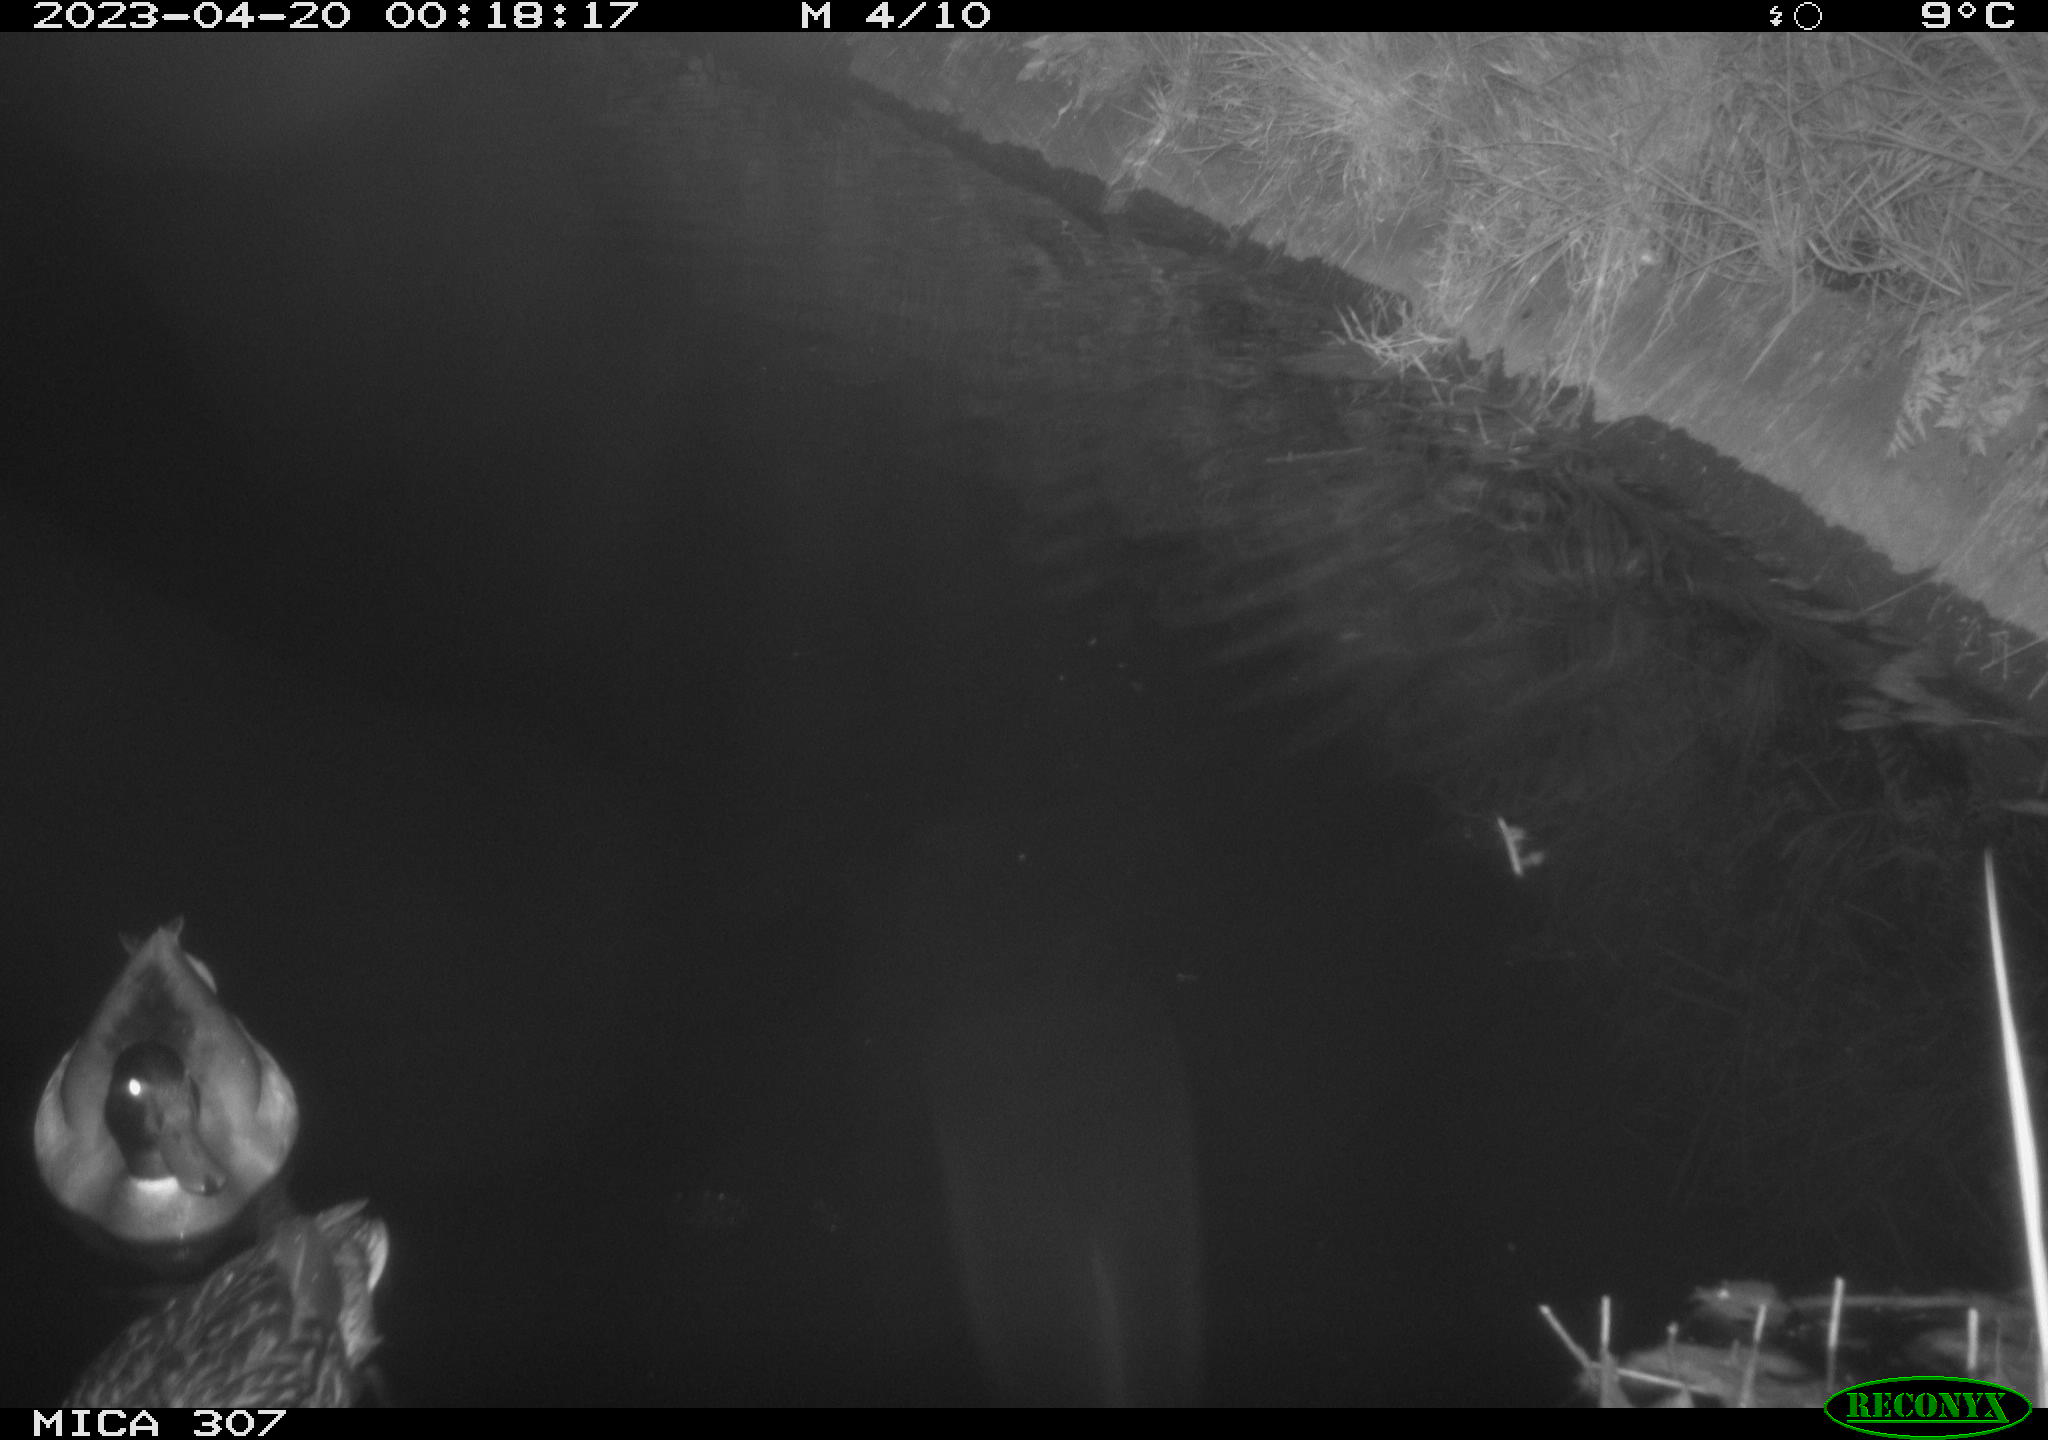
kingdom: Animalia
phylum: Chordata
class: Aves
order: Anseriformes
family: Anatidae
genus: Anas
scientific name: Anas
